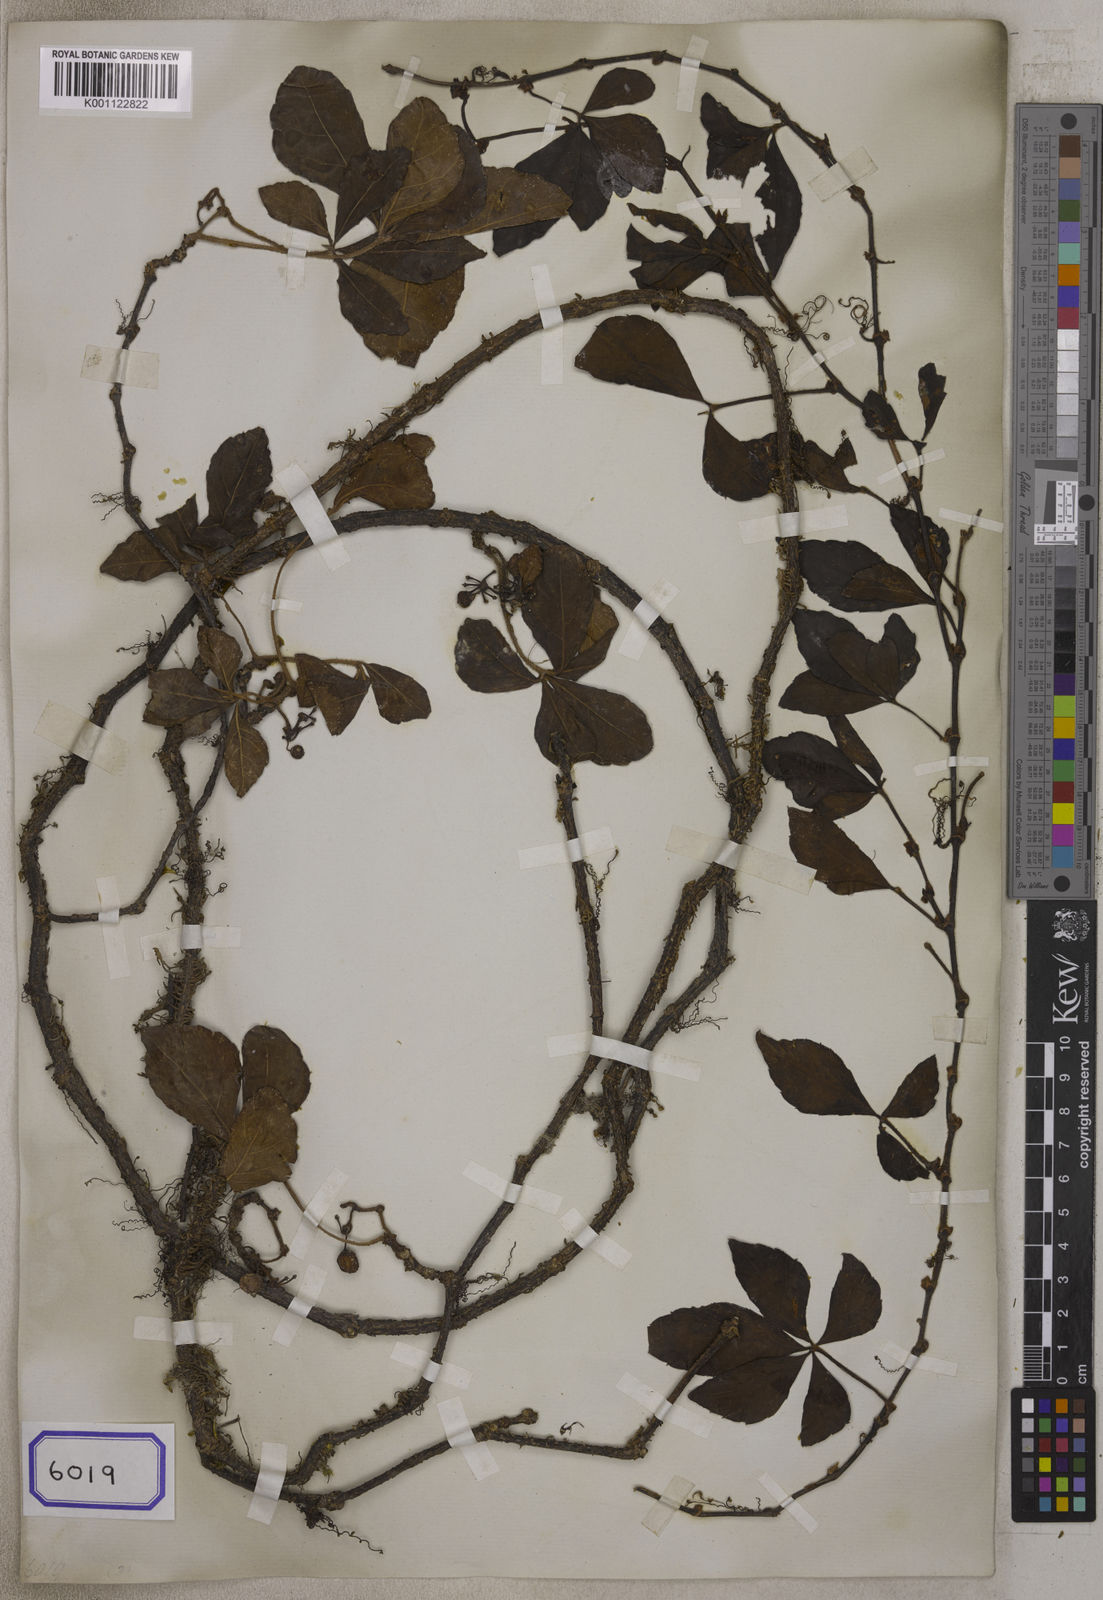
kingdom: Plantae
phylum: Tracheophyta
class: Magnoliopsida
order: Vitales
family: Vitaceae
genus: Tetrastigma
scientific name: Tetrastigma obtectum
